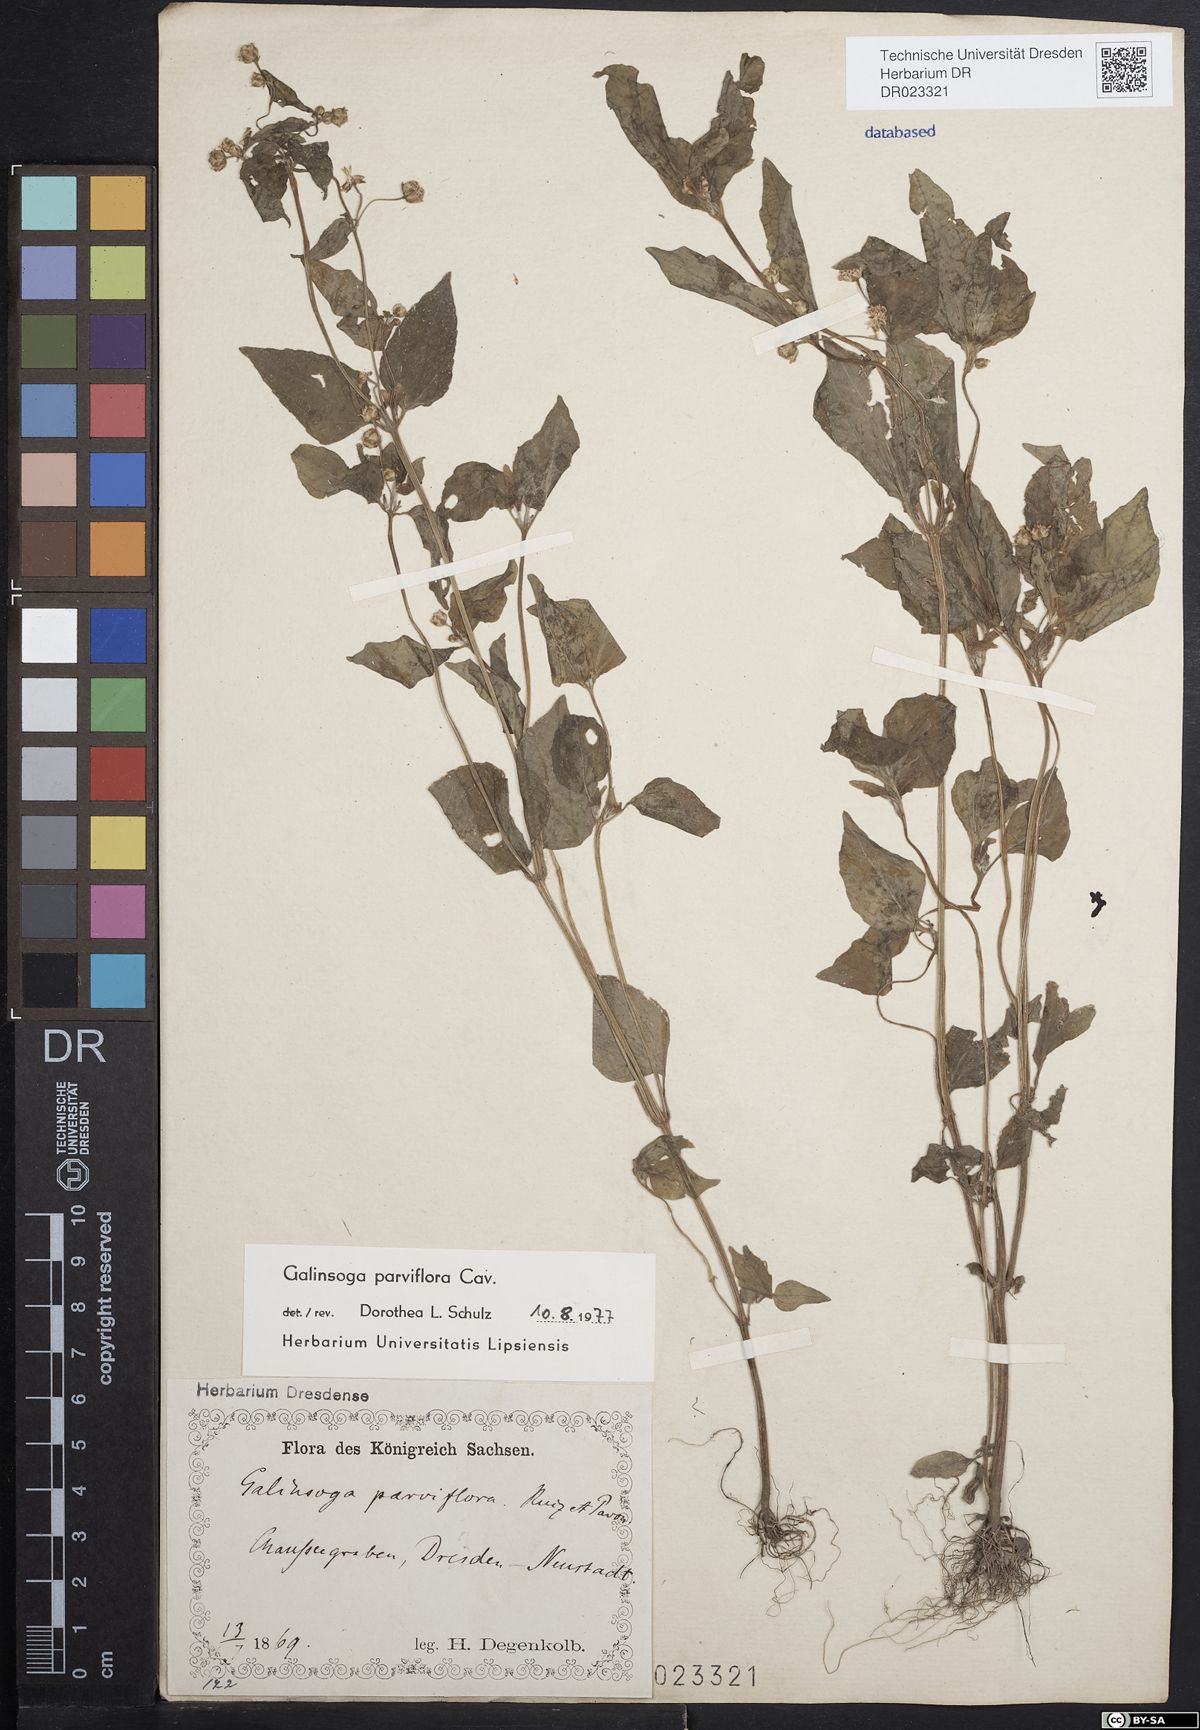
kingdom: Plantae
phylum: Tracheophyta
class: Magnoliopsida
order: Asterales
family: Asteraceae
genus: Galinsoga
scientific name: Galinsoga parviflora
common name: Gallant soldier
